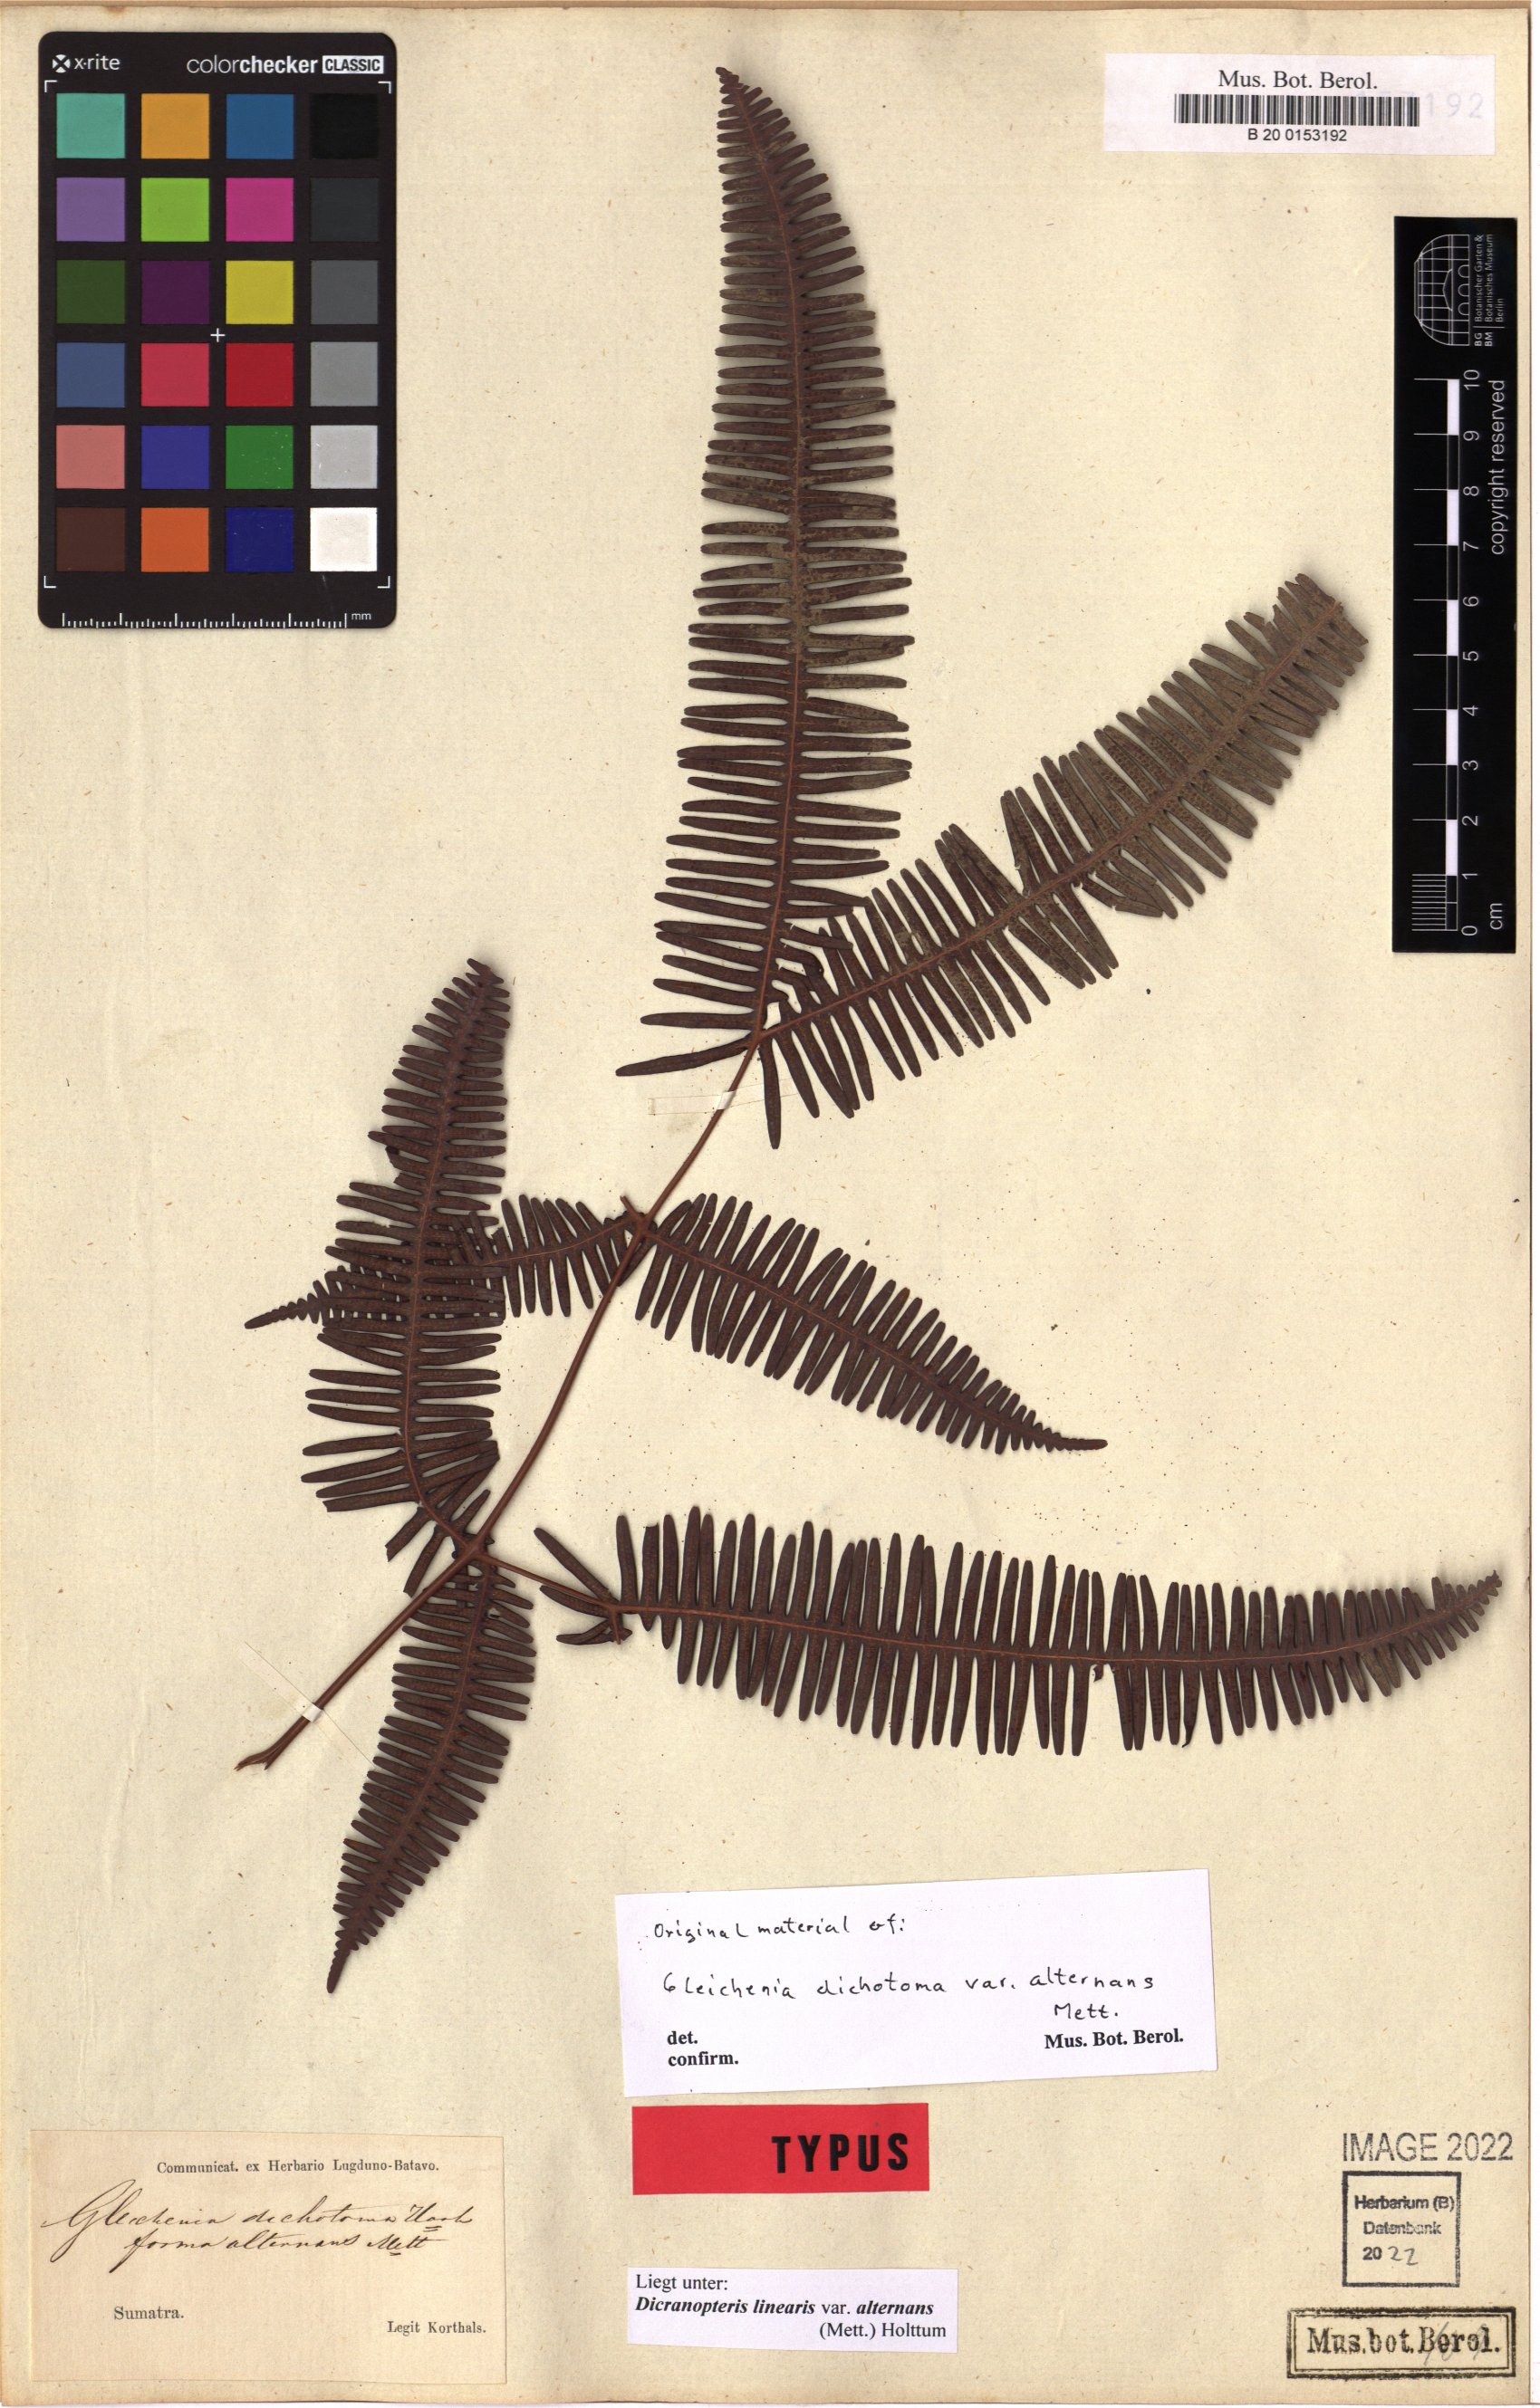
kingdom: Plantae
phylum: Tracheophyta
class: Polypodiopsida
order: Gleicheniales
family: Gleicheniaceae
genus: Dicranopteris
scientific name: Dicranopteris linearis
